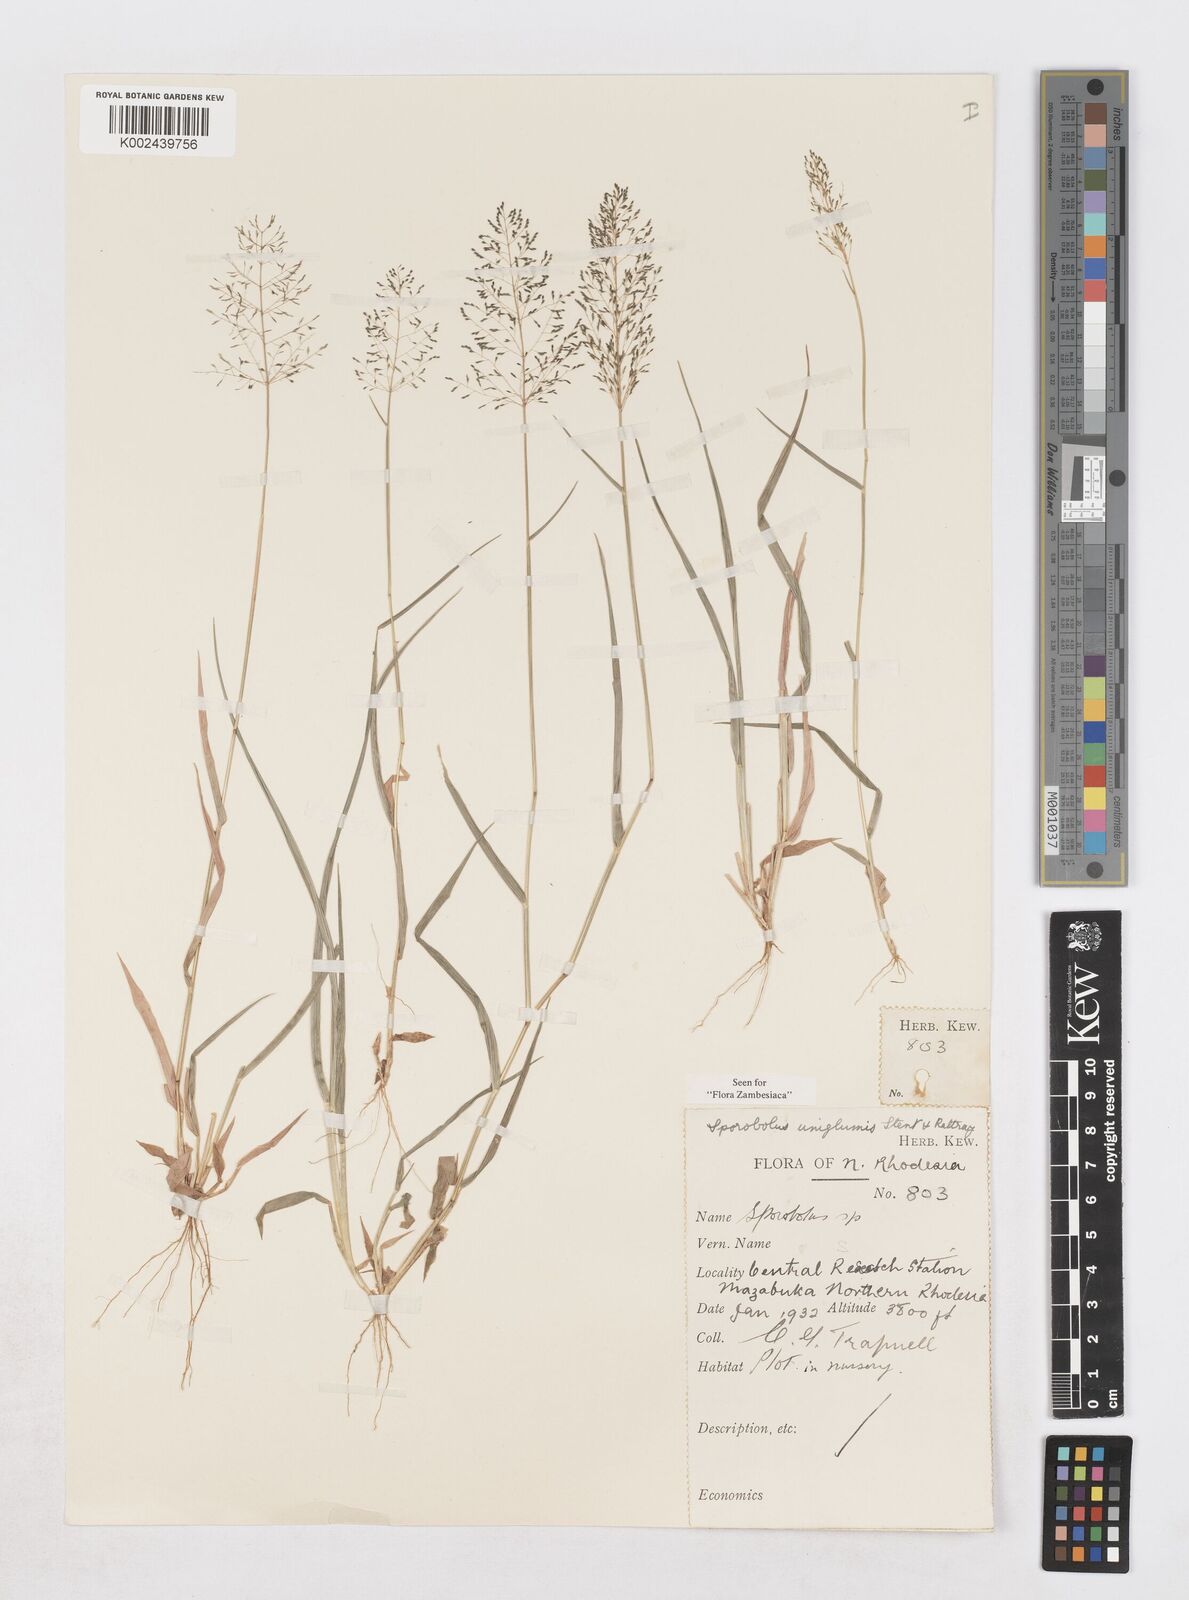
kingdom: Plantae
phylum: Tracheophyta
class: Liliopsida
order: Poales
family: Poaceae
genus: Sporobolus
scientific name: Sporobolus uniglumis
